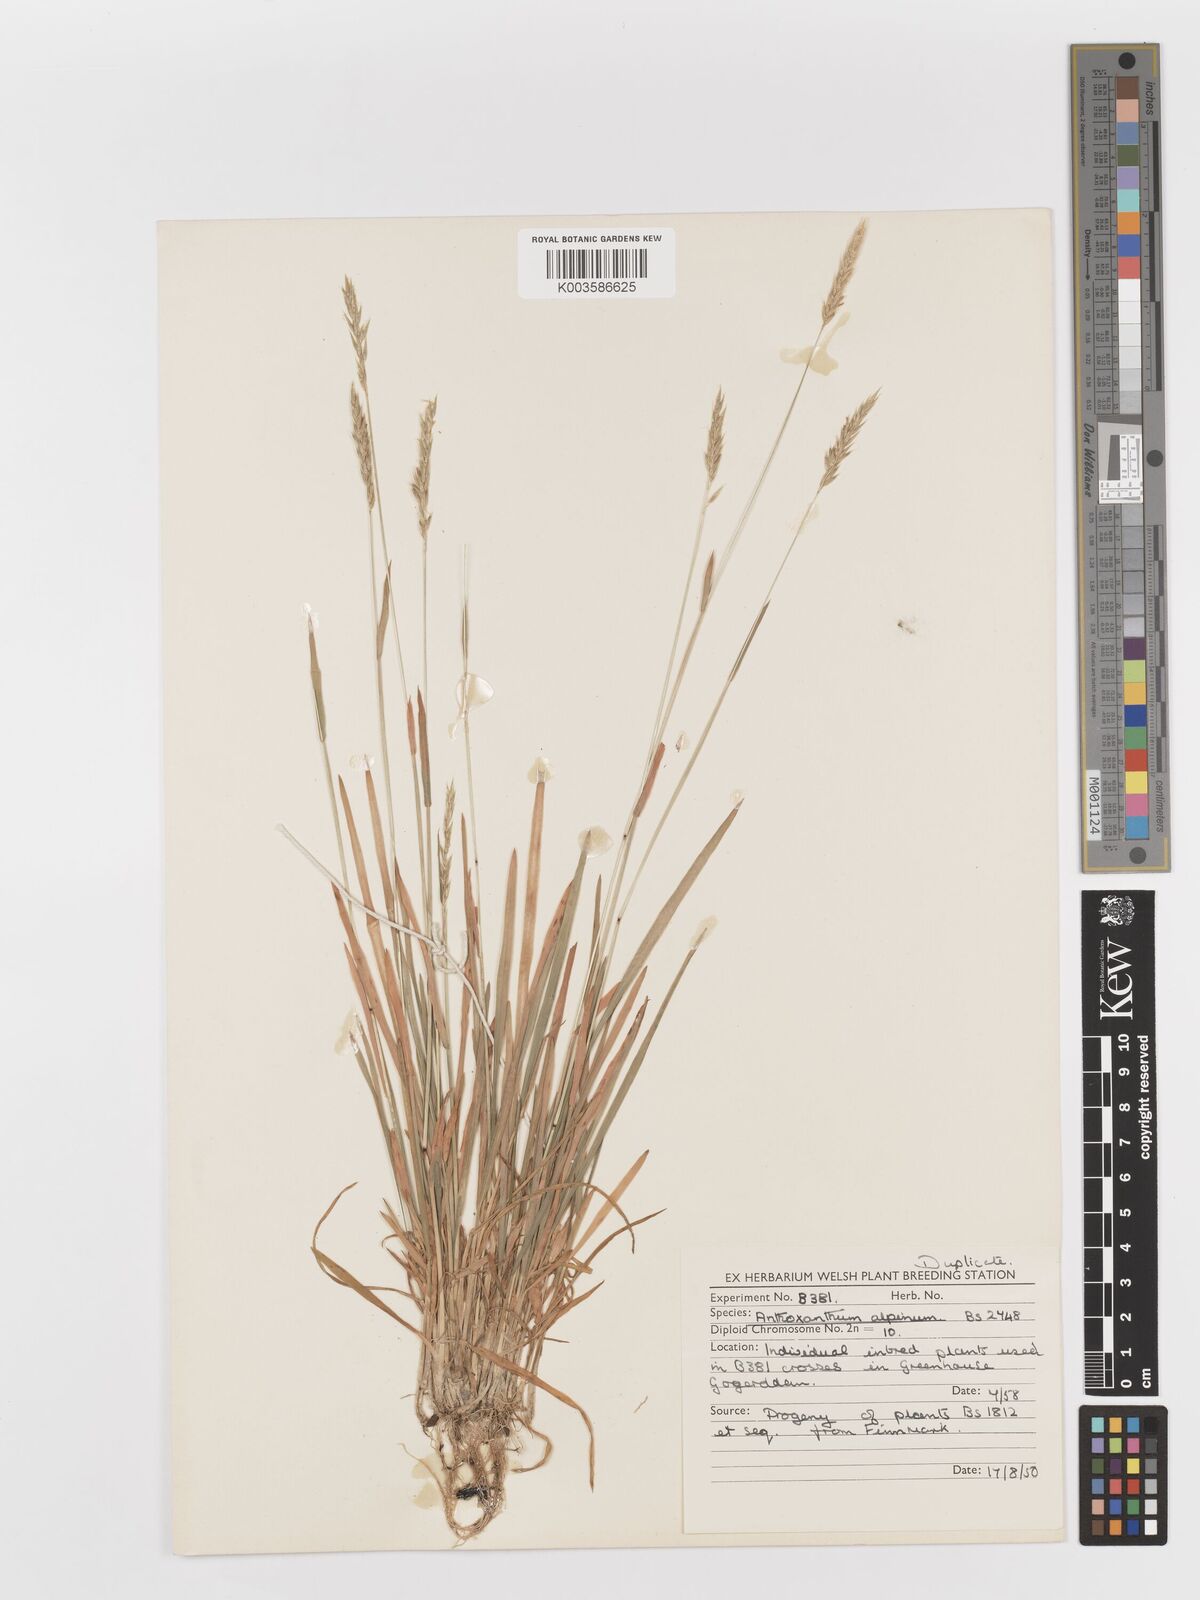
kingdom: Plantae
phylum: Tracheophyta
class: Liliopsida
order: Poales
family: Poaceae
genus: Anthoxanthum
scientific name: Anthoxanthum odoratum
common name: Sweet vernalgrass
